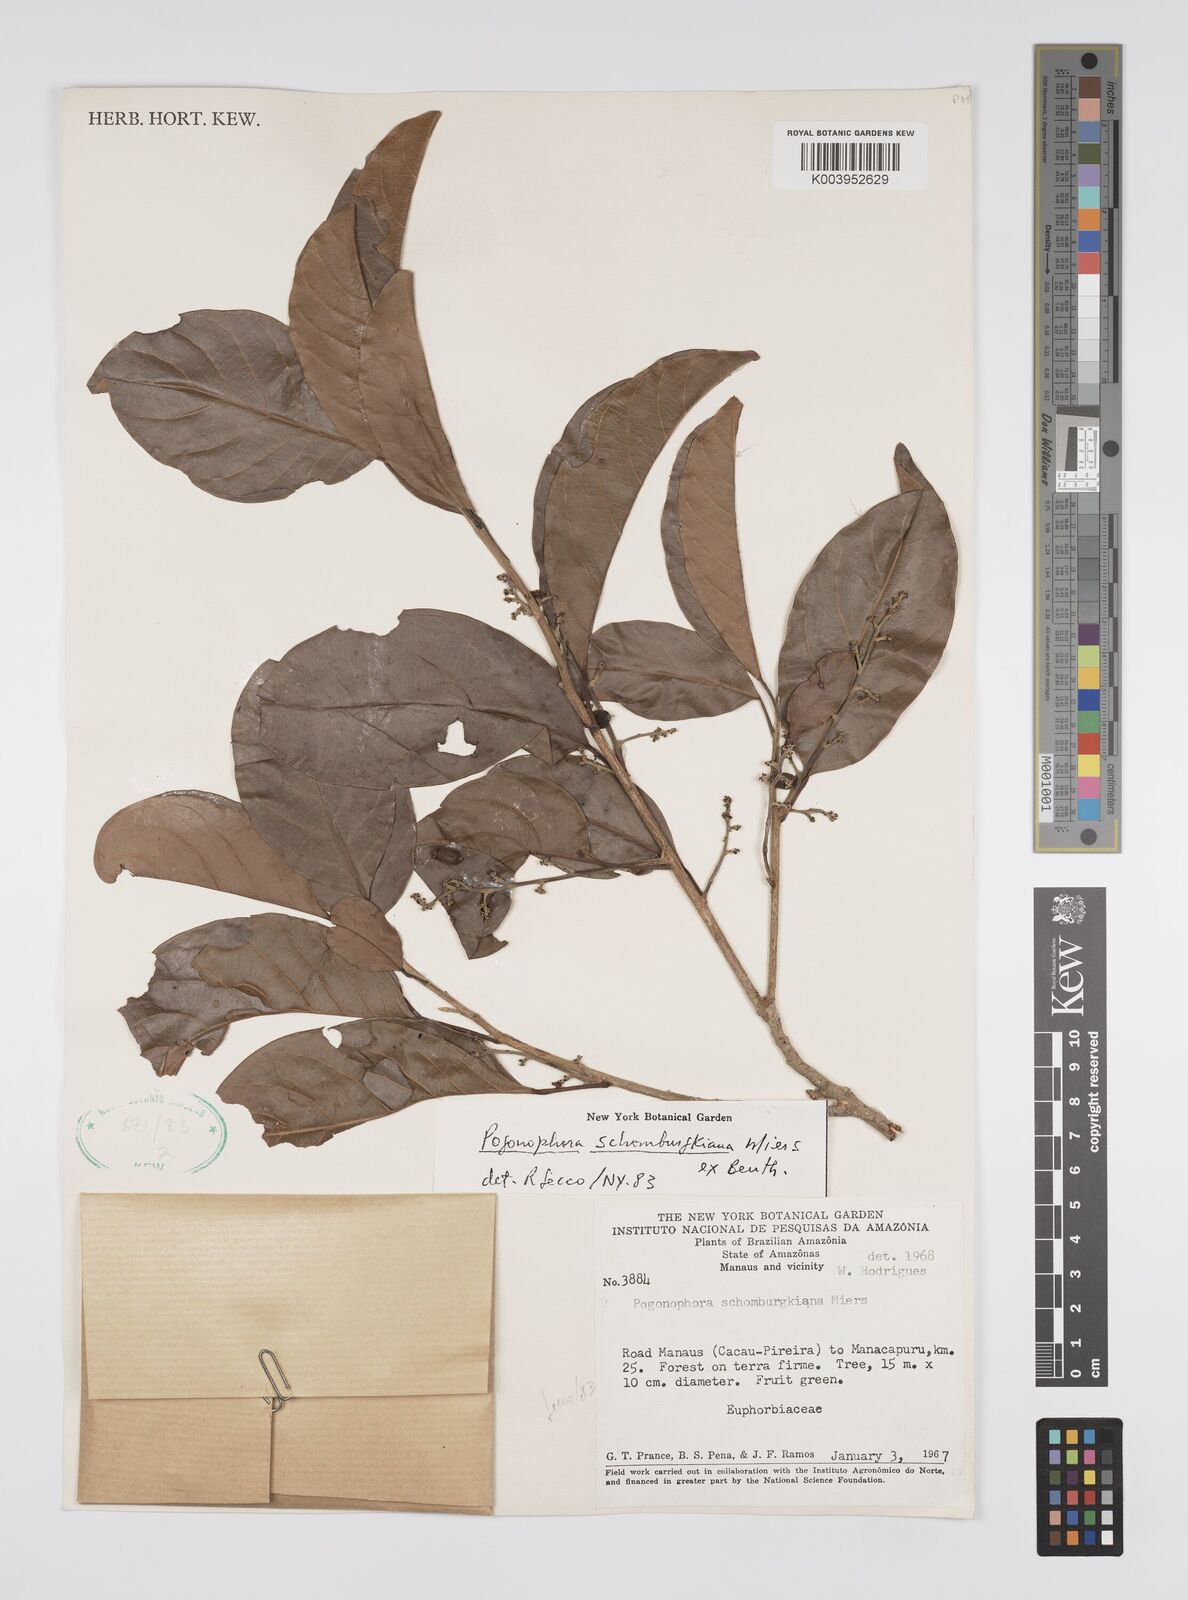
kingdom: Plantae
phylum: Tracheophyta
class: Magnoliopsida
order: Malpighiales
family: Peraceae
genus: Pogonophora
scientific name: Pogonophora schomburgkiana
